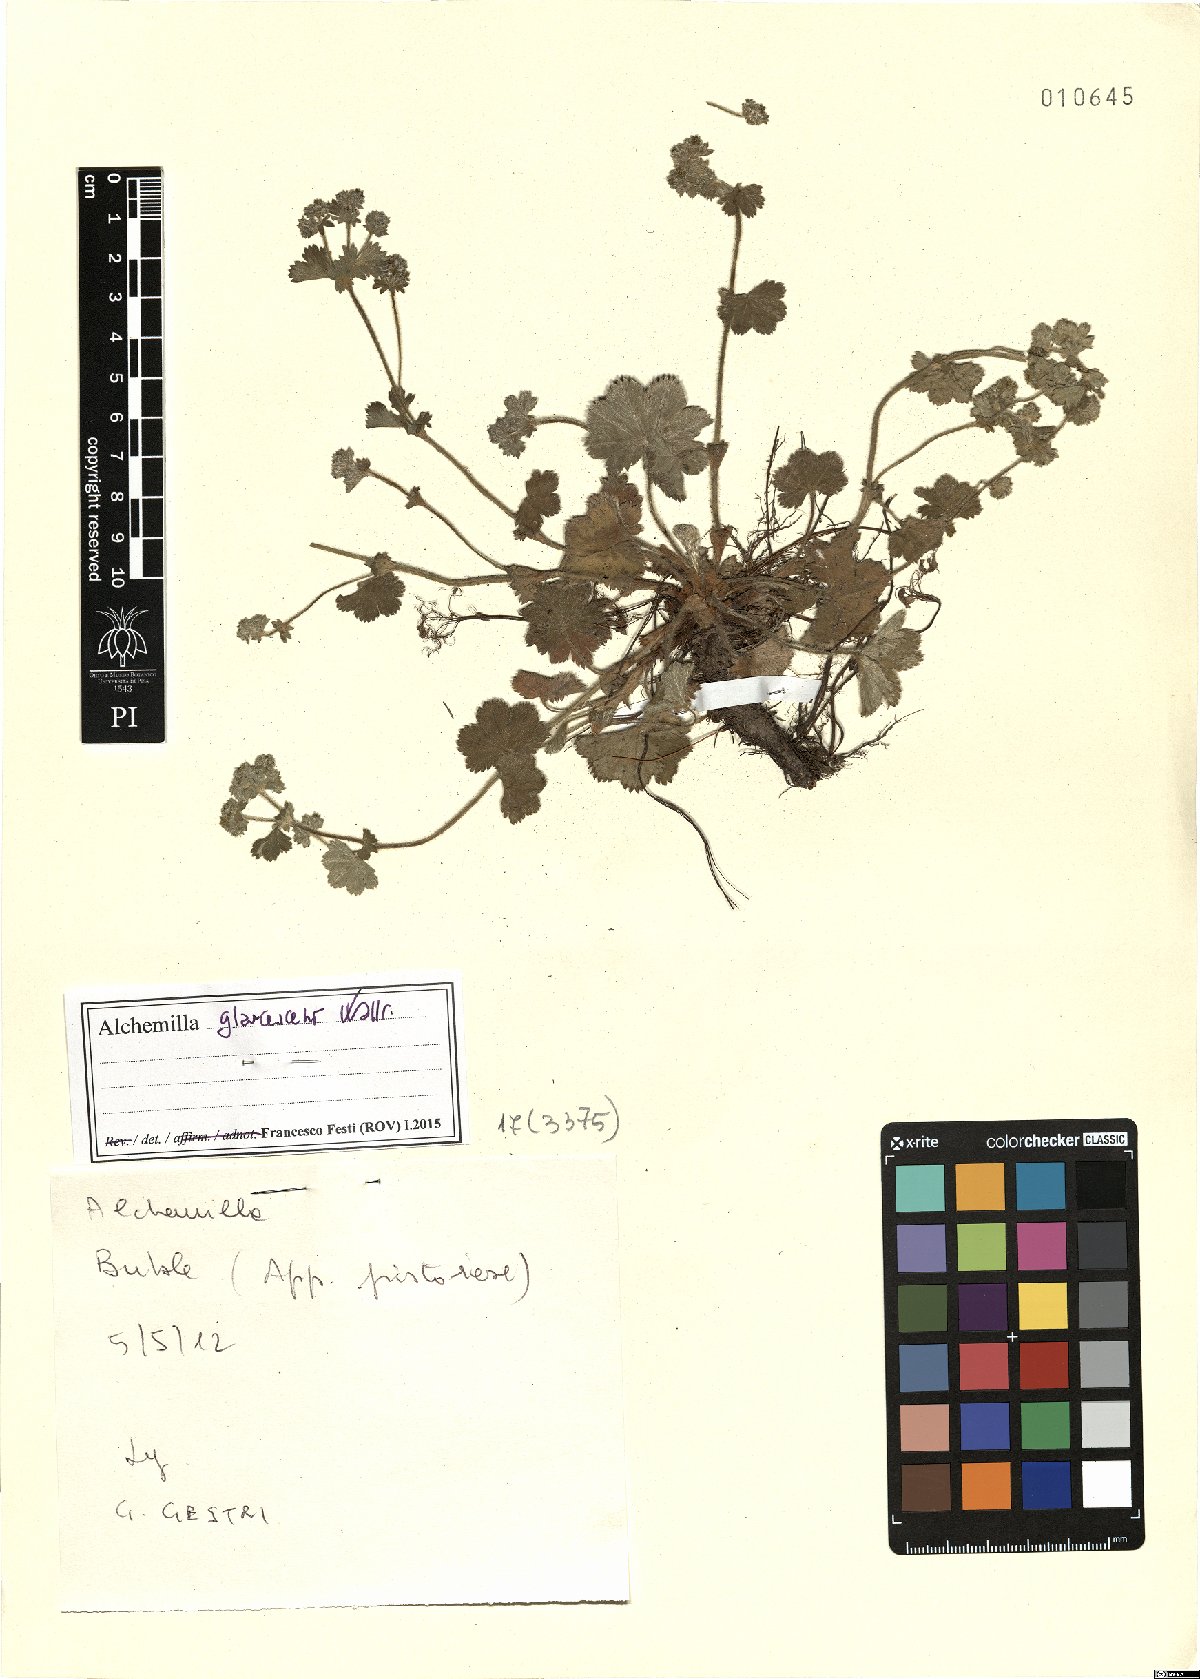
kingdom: Plantae
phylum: Tracheophyta
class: Magnoliopsida
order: Rosales
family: Rosaceae
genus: Alchemilla
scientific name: Alchemilla glaucescens
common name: Silky lady's mantle
